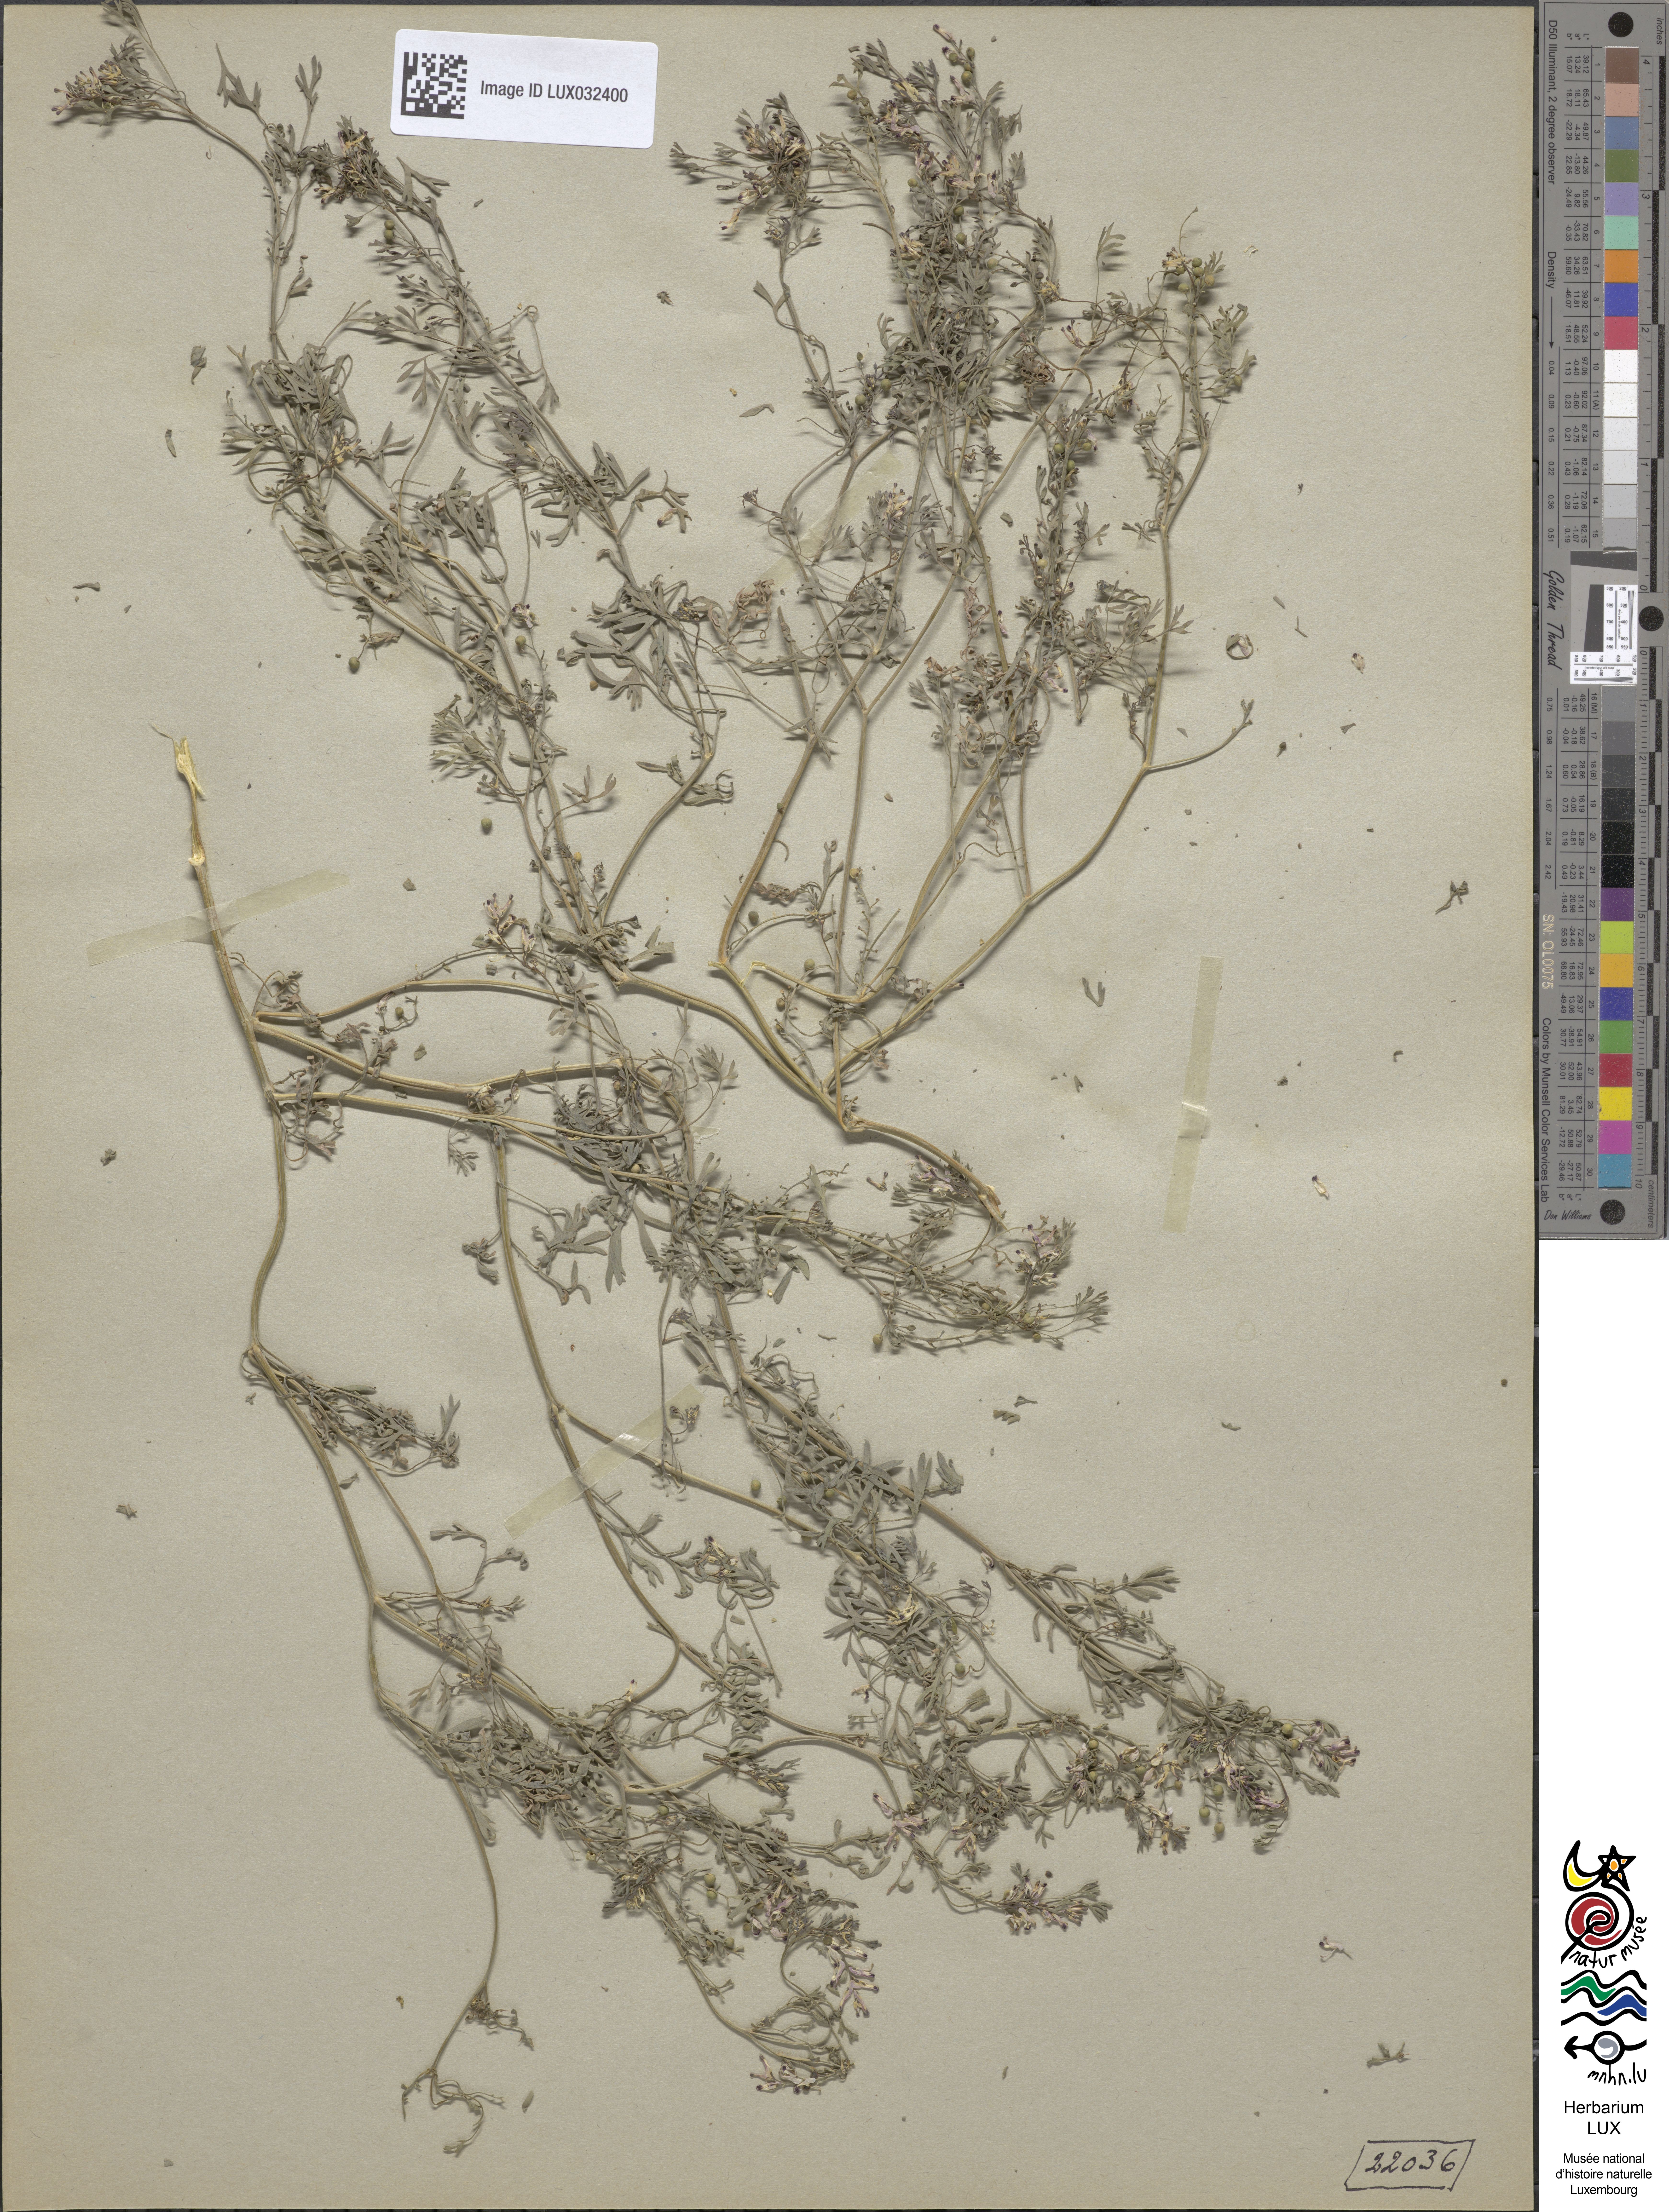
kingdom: Plantae
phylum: Tracheophyta
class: Magnoliopsida
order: Ranunculales
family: Papaveraceae
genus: Fumaria
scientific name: Fumaria vaillantii
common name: Few-flowered fumitory
